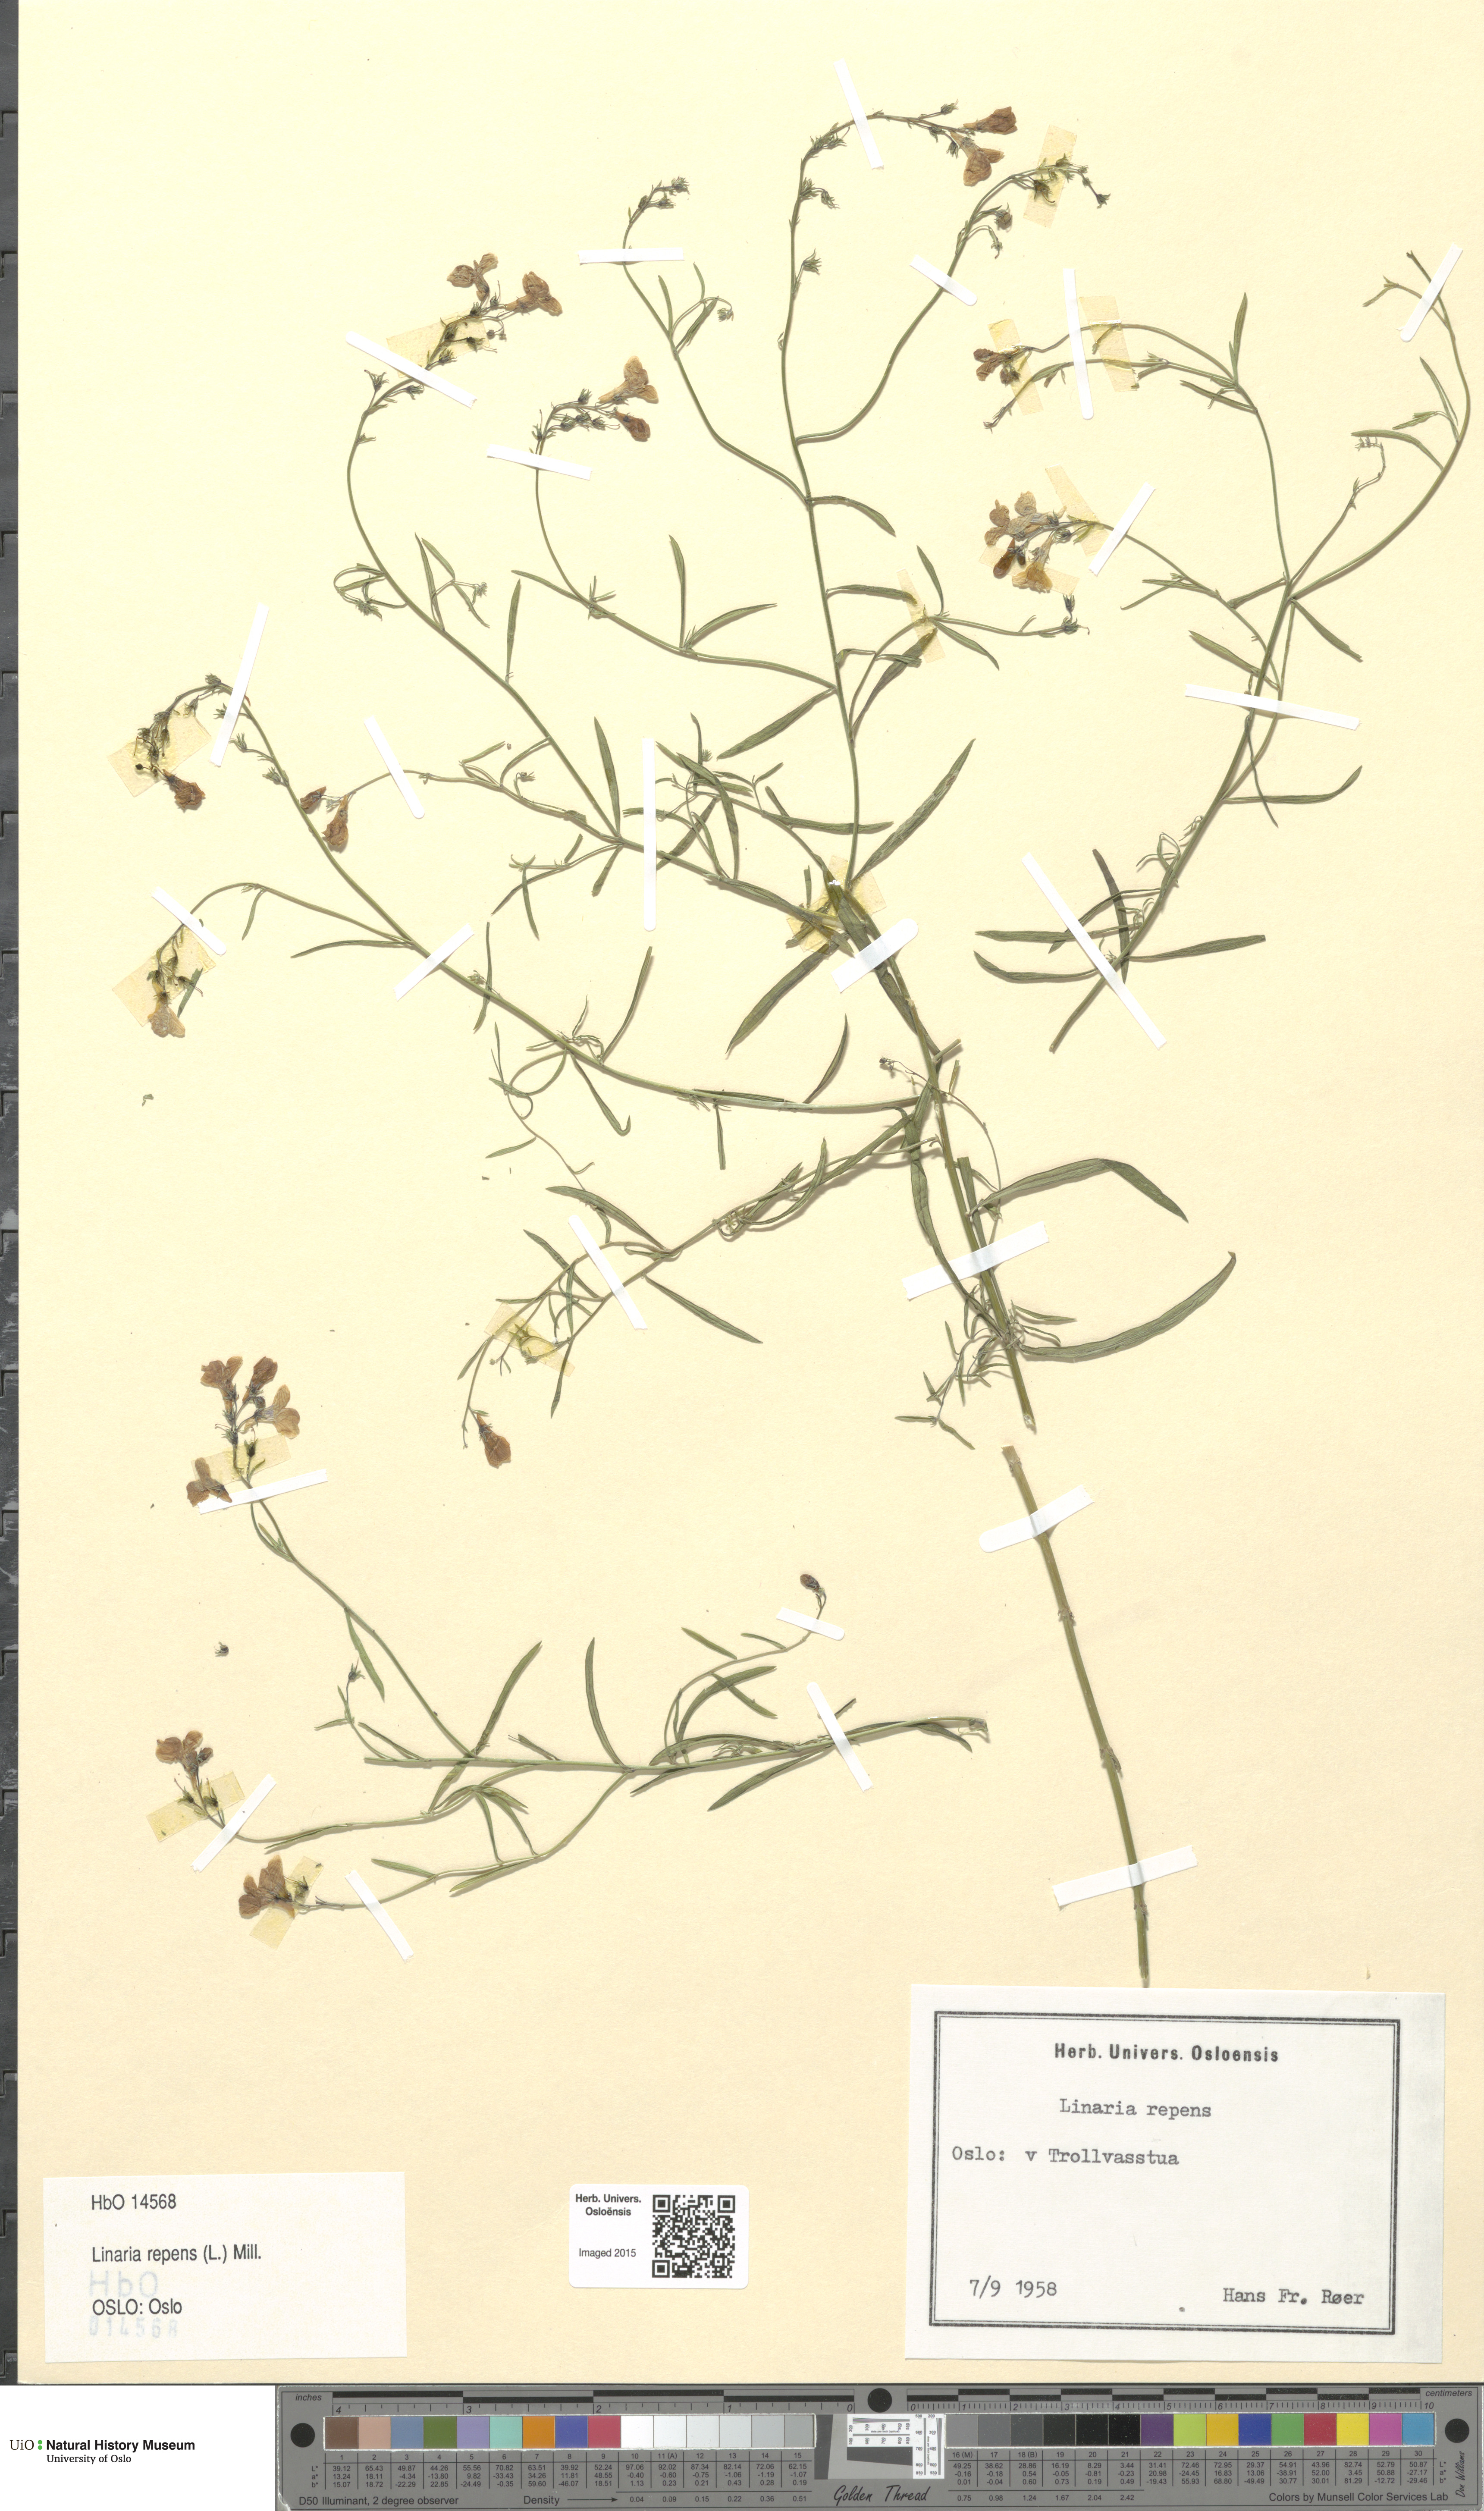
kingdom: Plantae
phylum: Tracheophyta
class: Magnoliopsida
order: Lamiales
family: Plantaginaceae
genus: Linaria
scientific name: Linaria repens
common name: Pale toadflax
